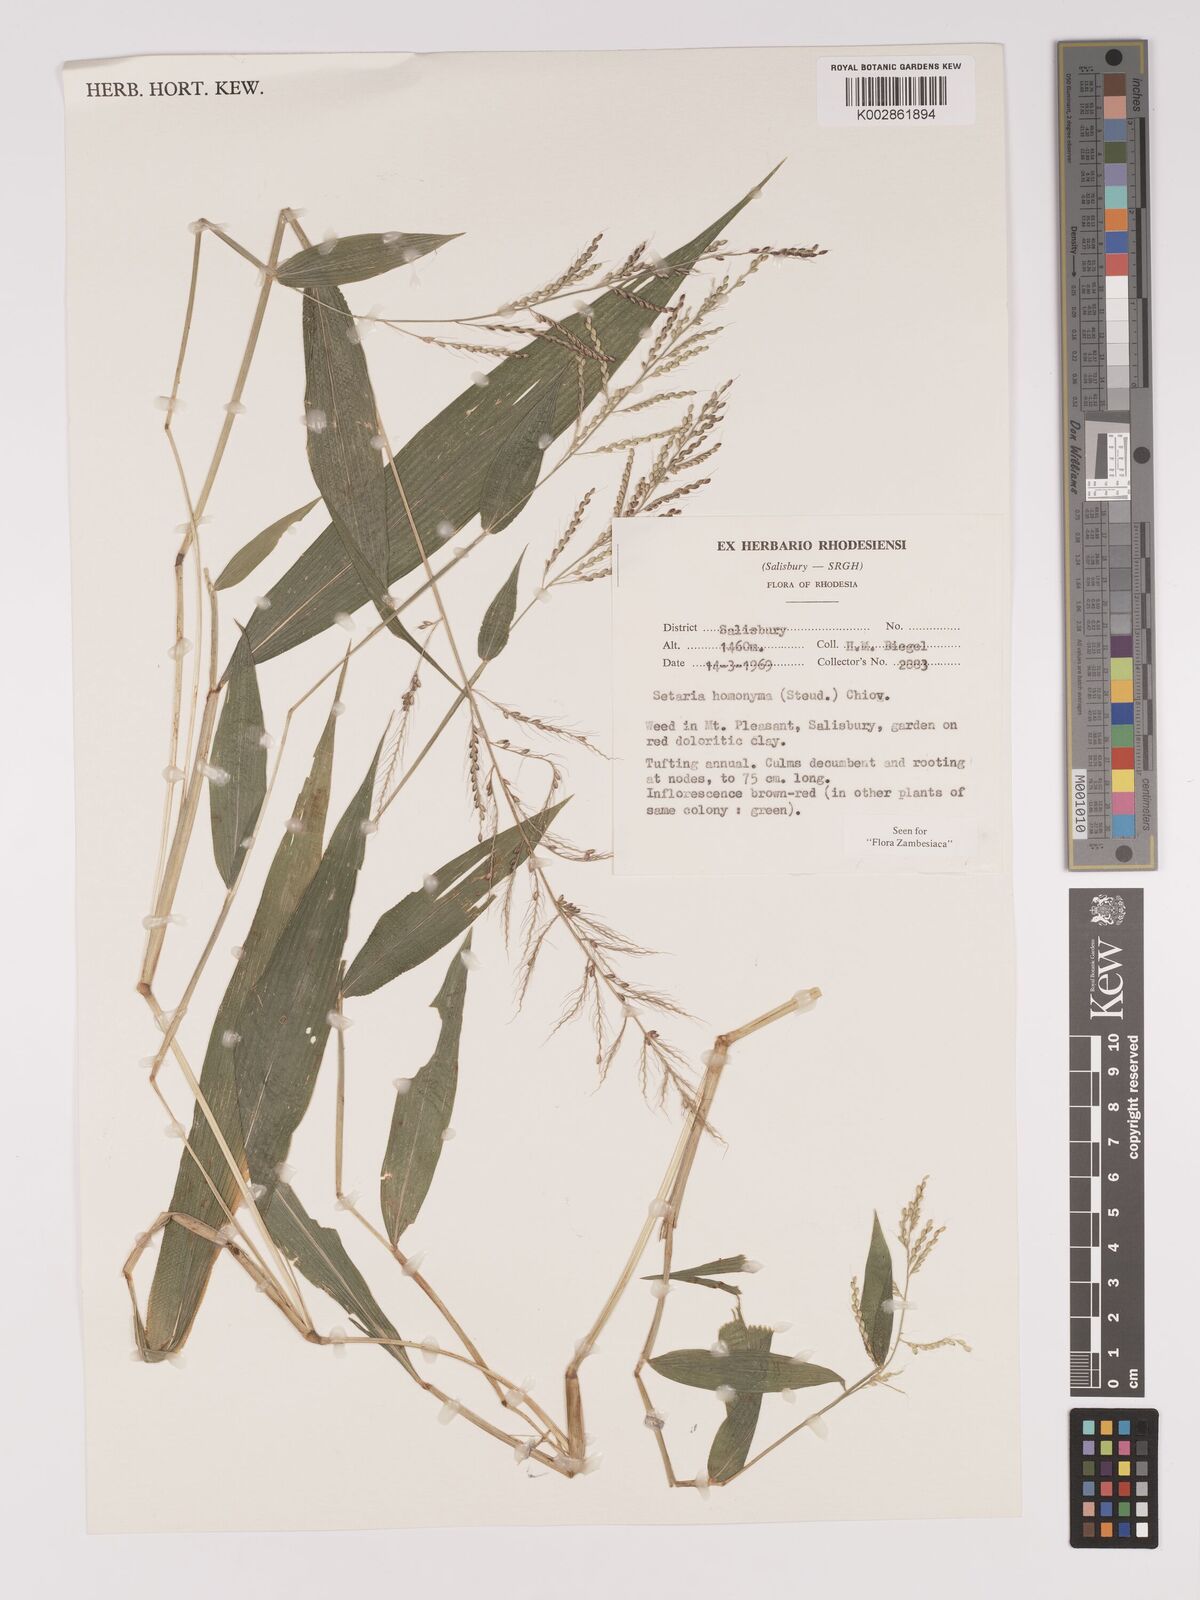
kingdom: Plantae
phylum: Tracheophyta
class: Liliopsida
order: Poales
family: Poaceae
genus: Setaria
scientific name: Setaria homonyma
